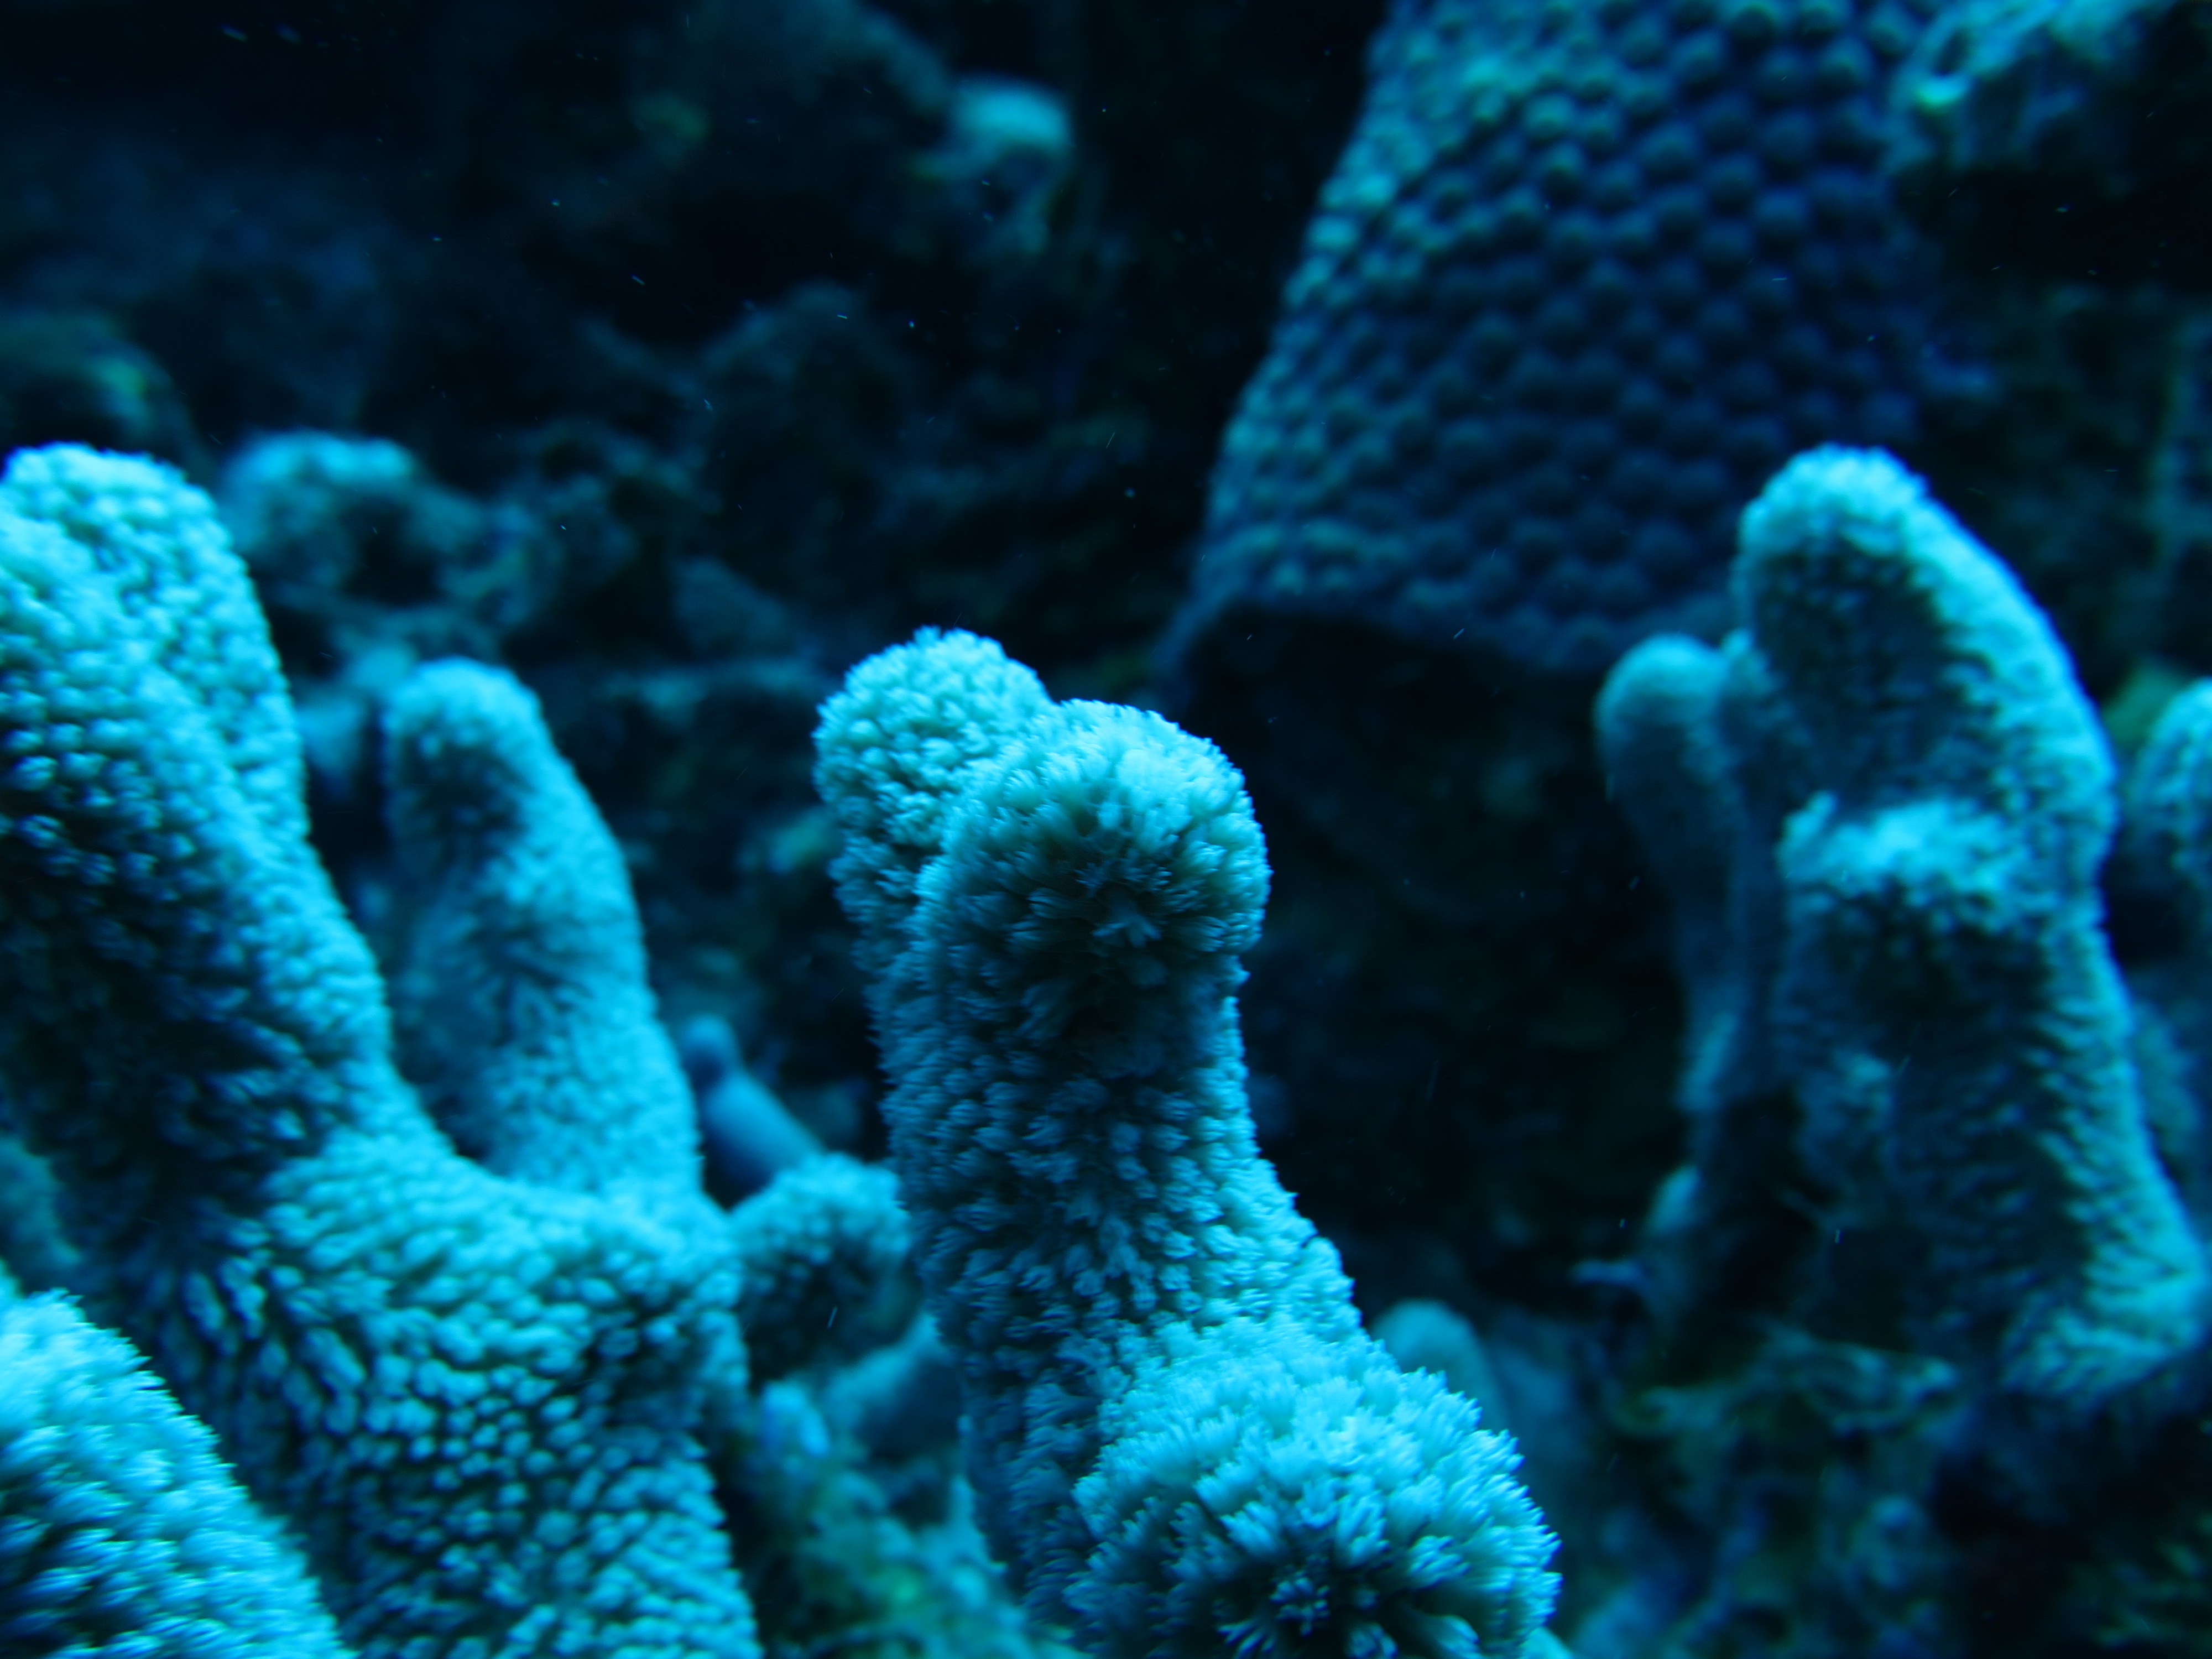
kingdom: Animalia
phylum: Cnidaria
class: Anthozoa
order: Scleractinia
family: Poritidae
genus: Porites
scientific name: Porites porites
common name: Finger coral
